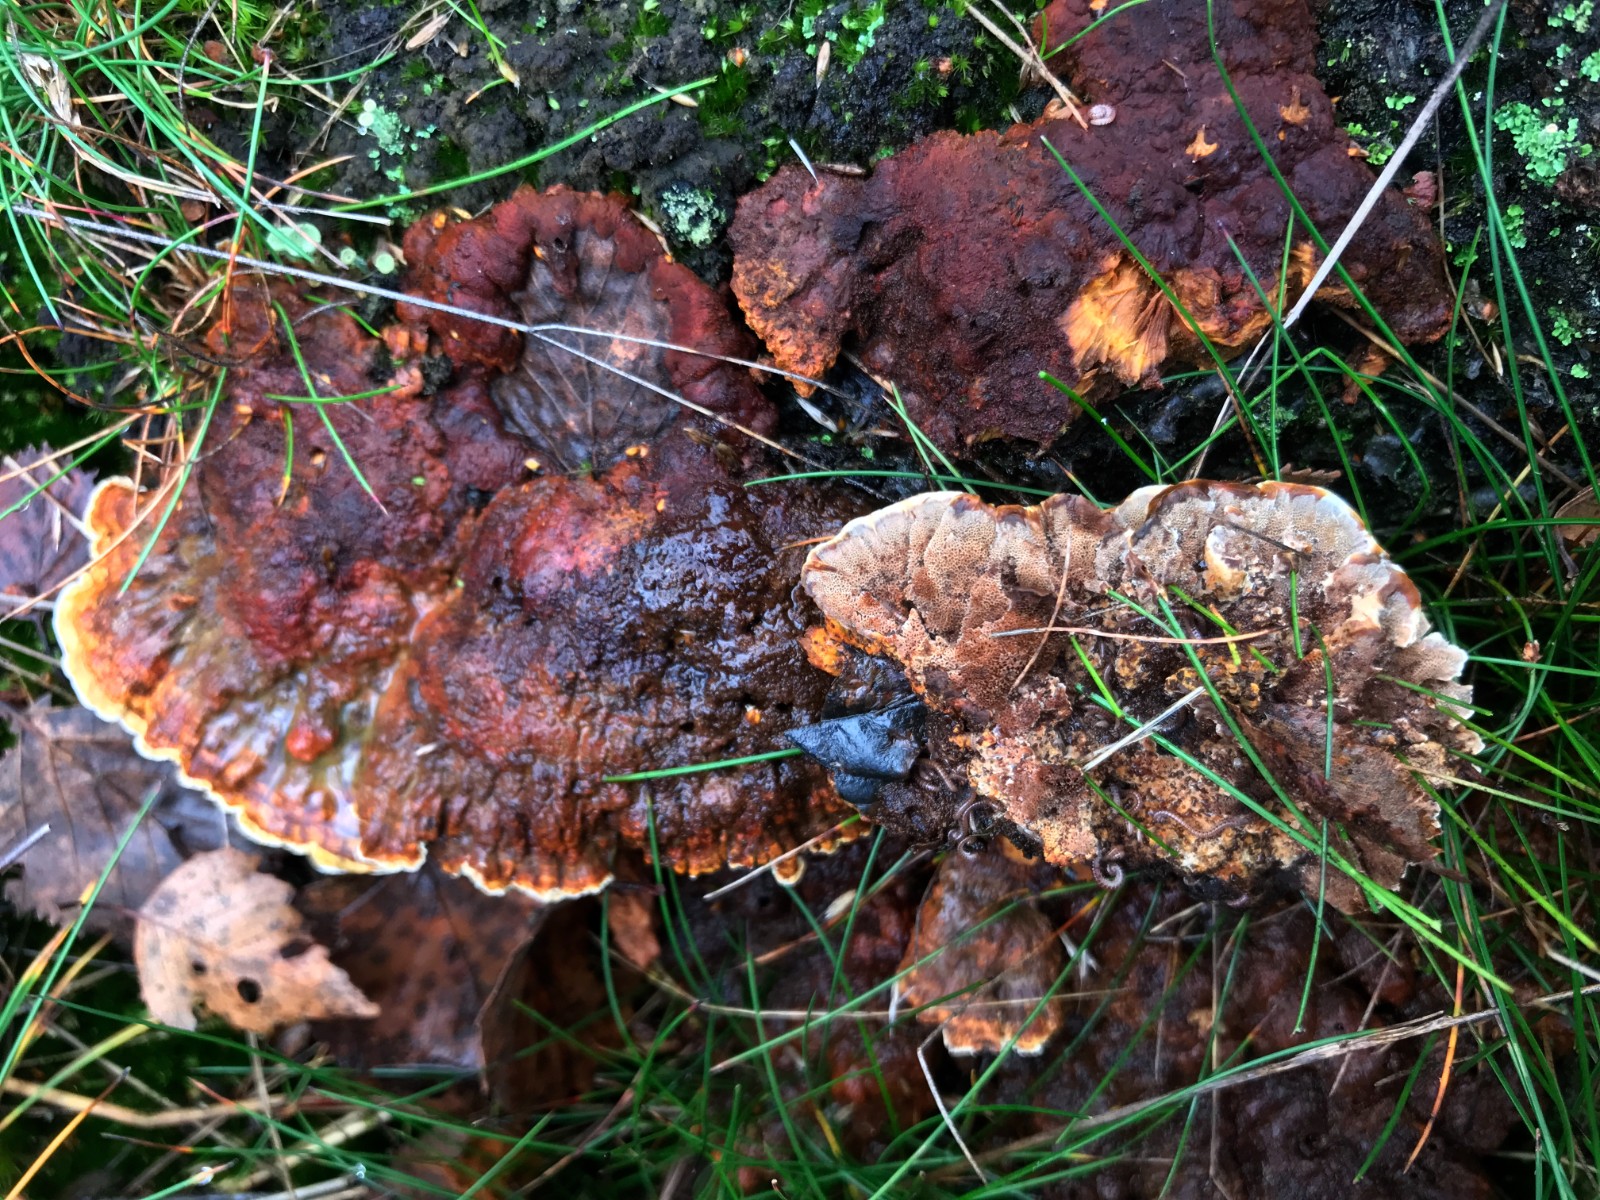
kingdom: Fungi
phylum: Basidiomycota
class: Agaricomycetes
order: Hymenochaetales
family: Hymenochaetaceae
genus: Xanthoporia
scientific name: Xanthoporia radiata
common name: elle-spejlporesvamp
